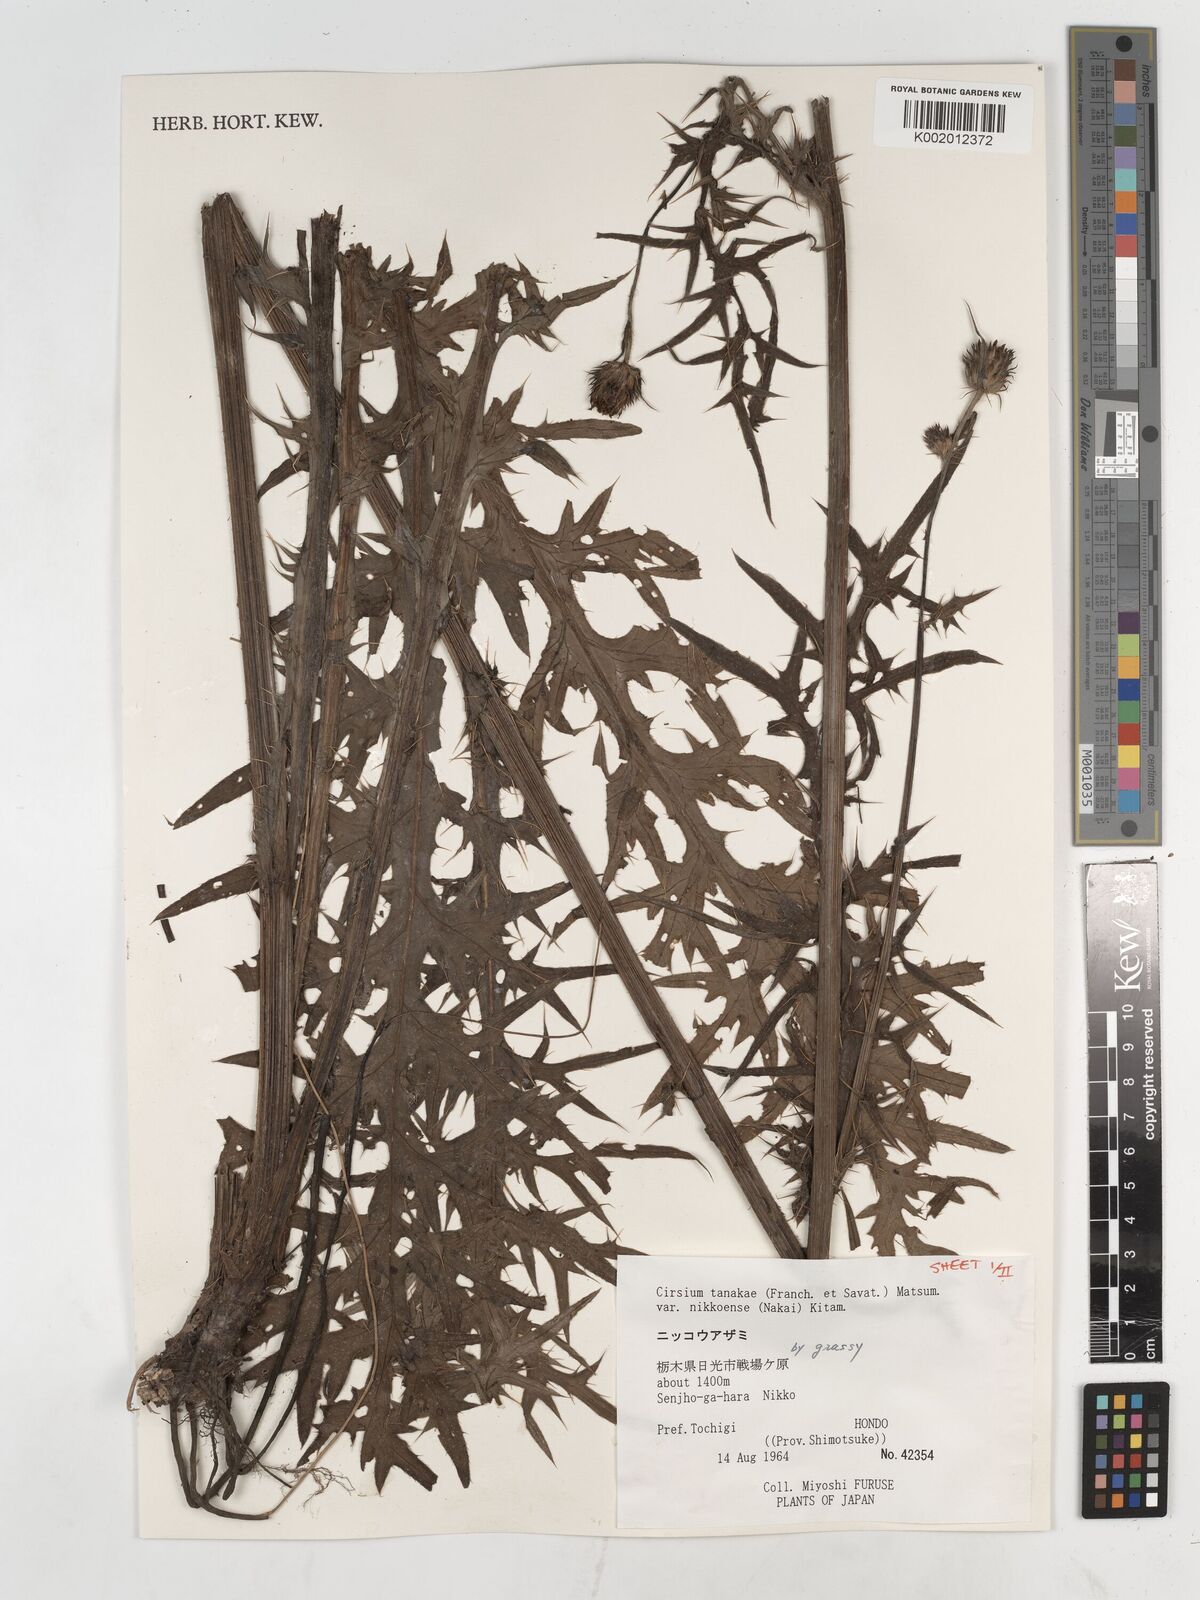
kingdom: Plantae
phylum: Tracheophyta
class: Magnoliopsida
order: Asterales
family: Asteraceae
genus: Cirsium
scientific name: Cirsium nipponicum
